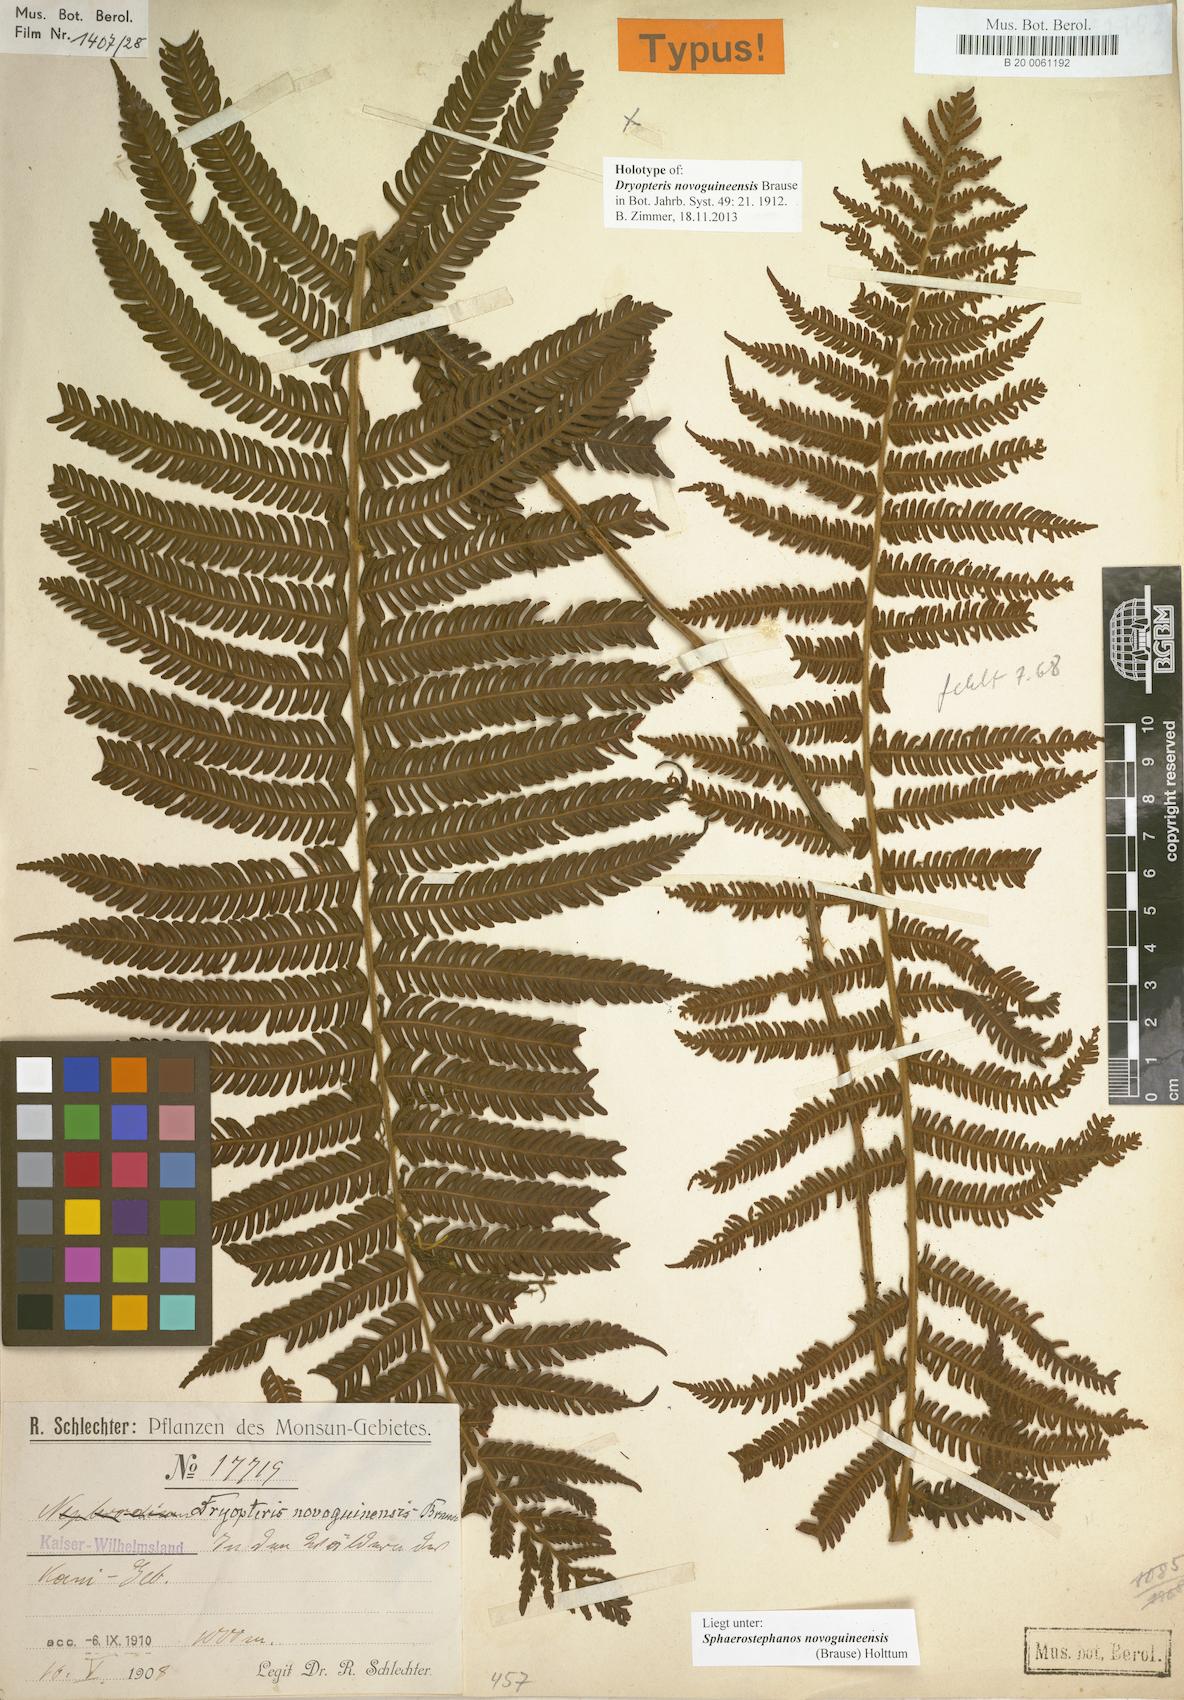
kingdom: Plantae
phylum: Tracheophyta
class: Polypodiopsida
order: Polypodiales
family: Thelypteridaceae
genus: Sphaerostephanos
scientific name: Sphaerostephanos novoguineensis
